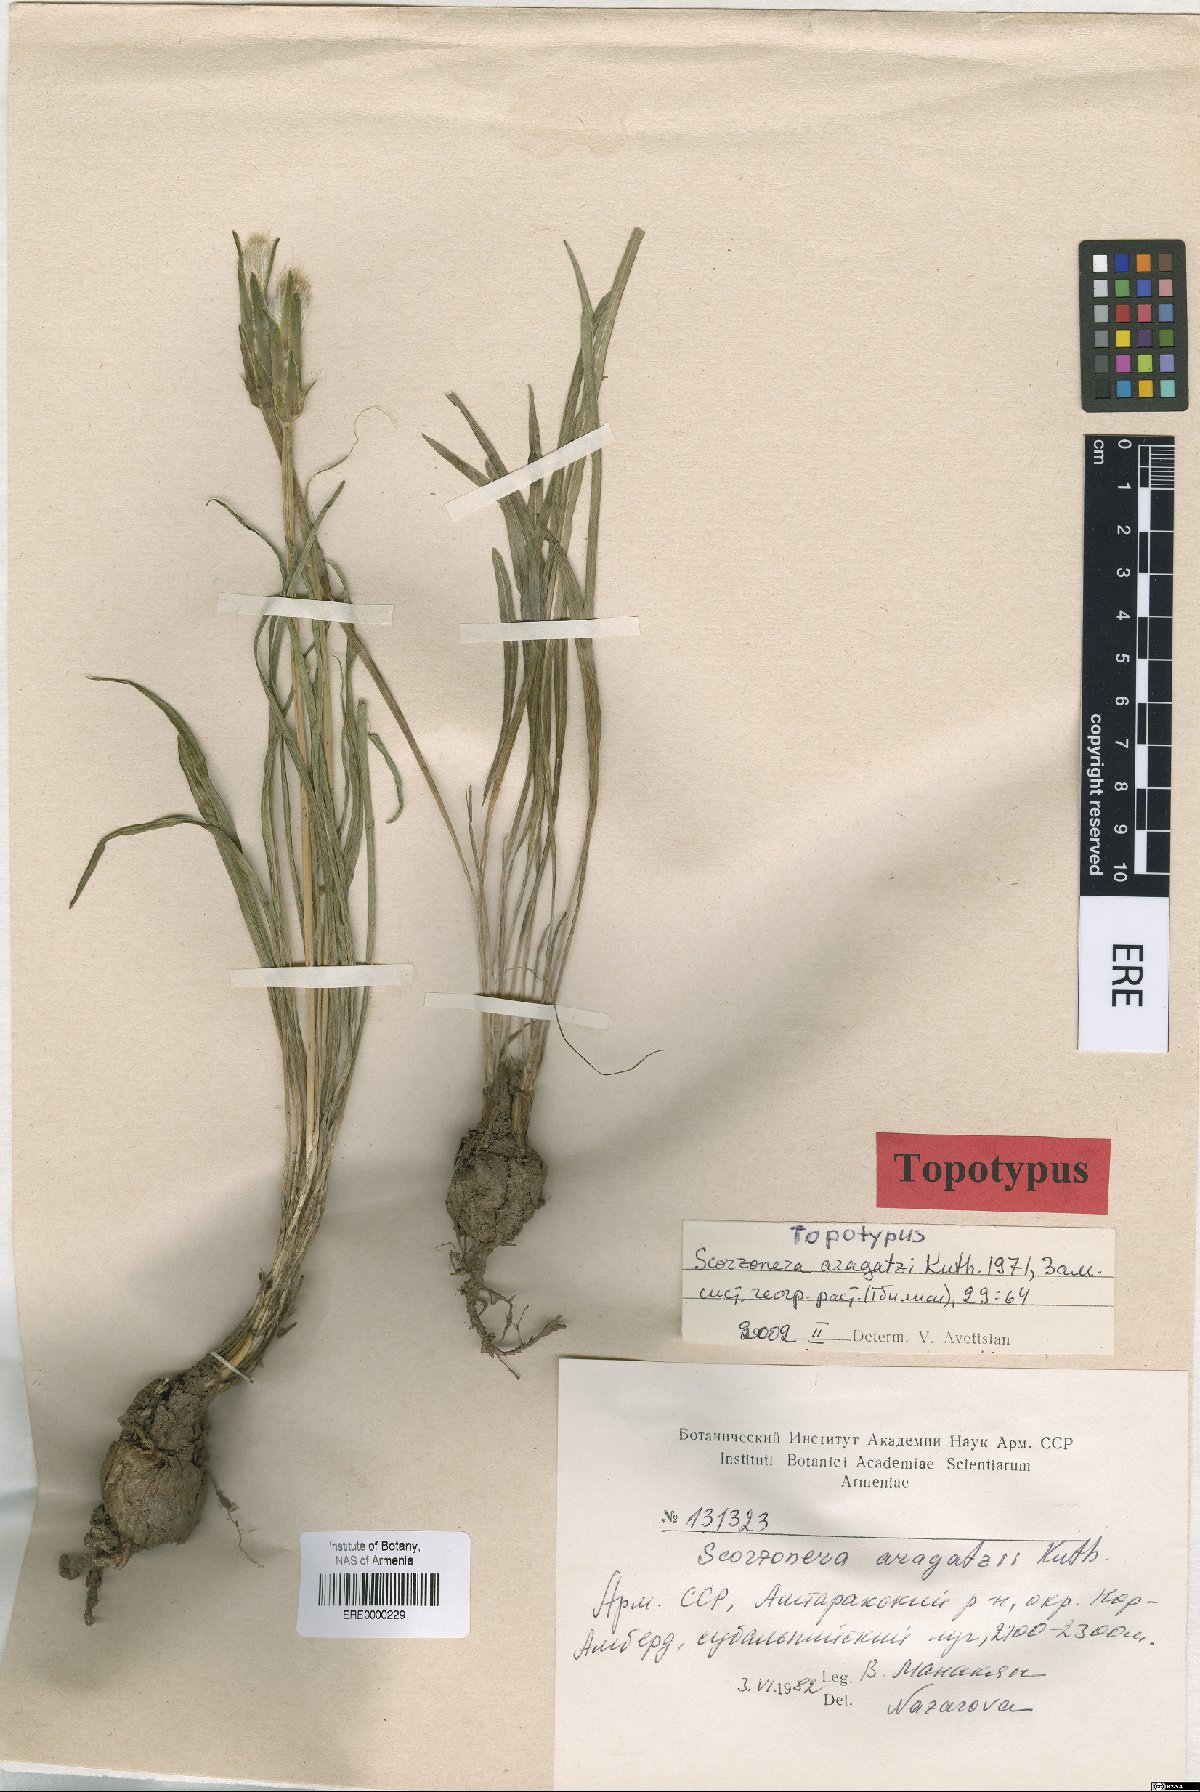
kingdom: Plantae
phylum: Tracheophyta
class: Magnoliopsida
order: Asterales
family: Asteraceae
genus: Pseudopodospermum
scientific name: Pseudopodospermum aragatzii
